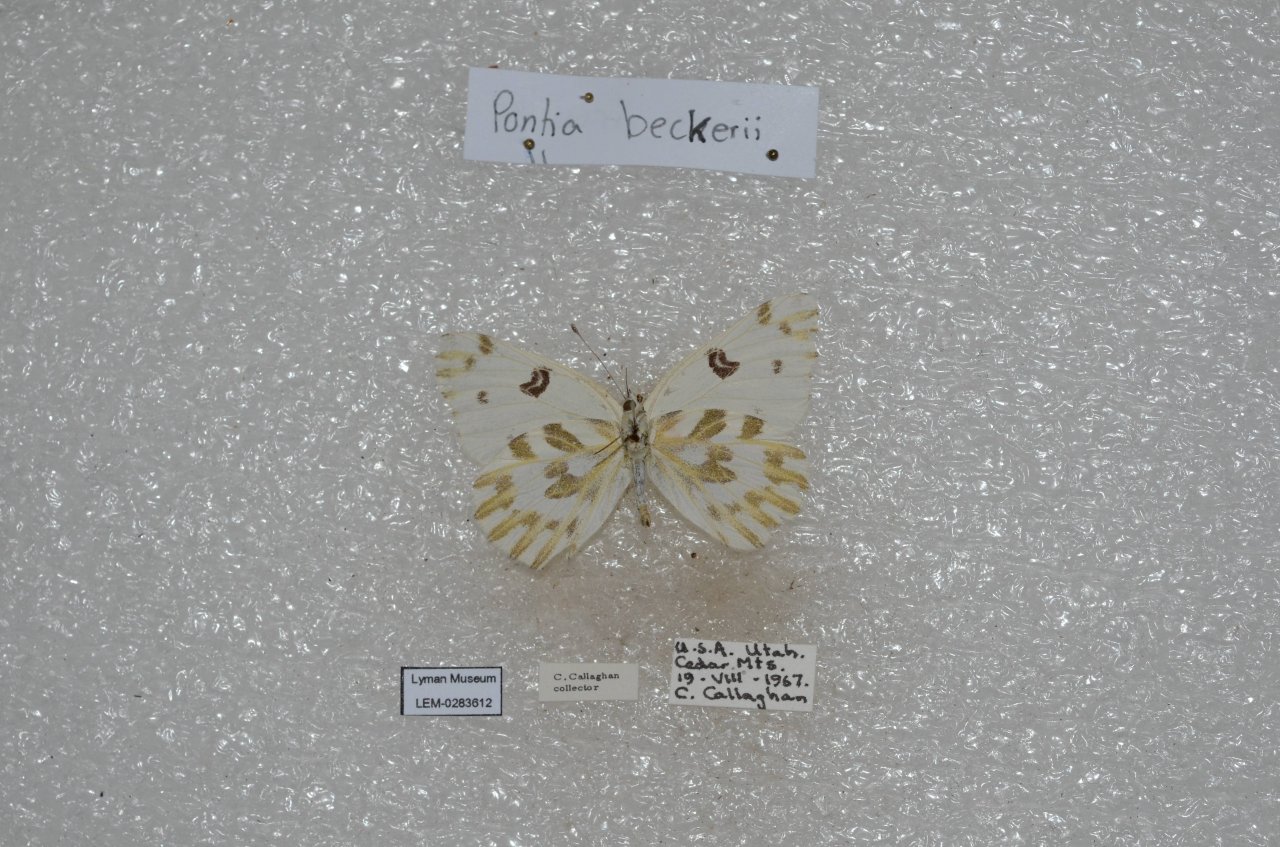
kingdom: Animalia
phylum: Arthropoda
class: Insecta
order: Lepidoptera
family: Pieridae
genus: Pontia
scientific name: Pontia beckerii
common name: Becker's White
